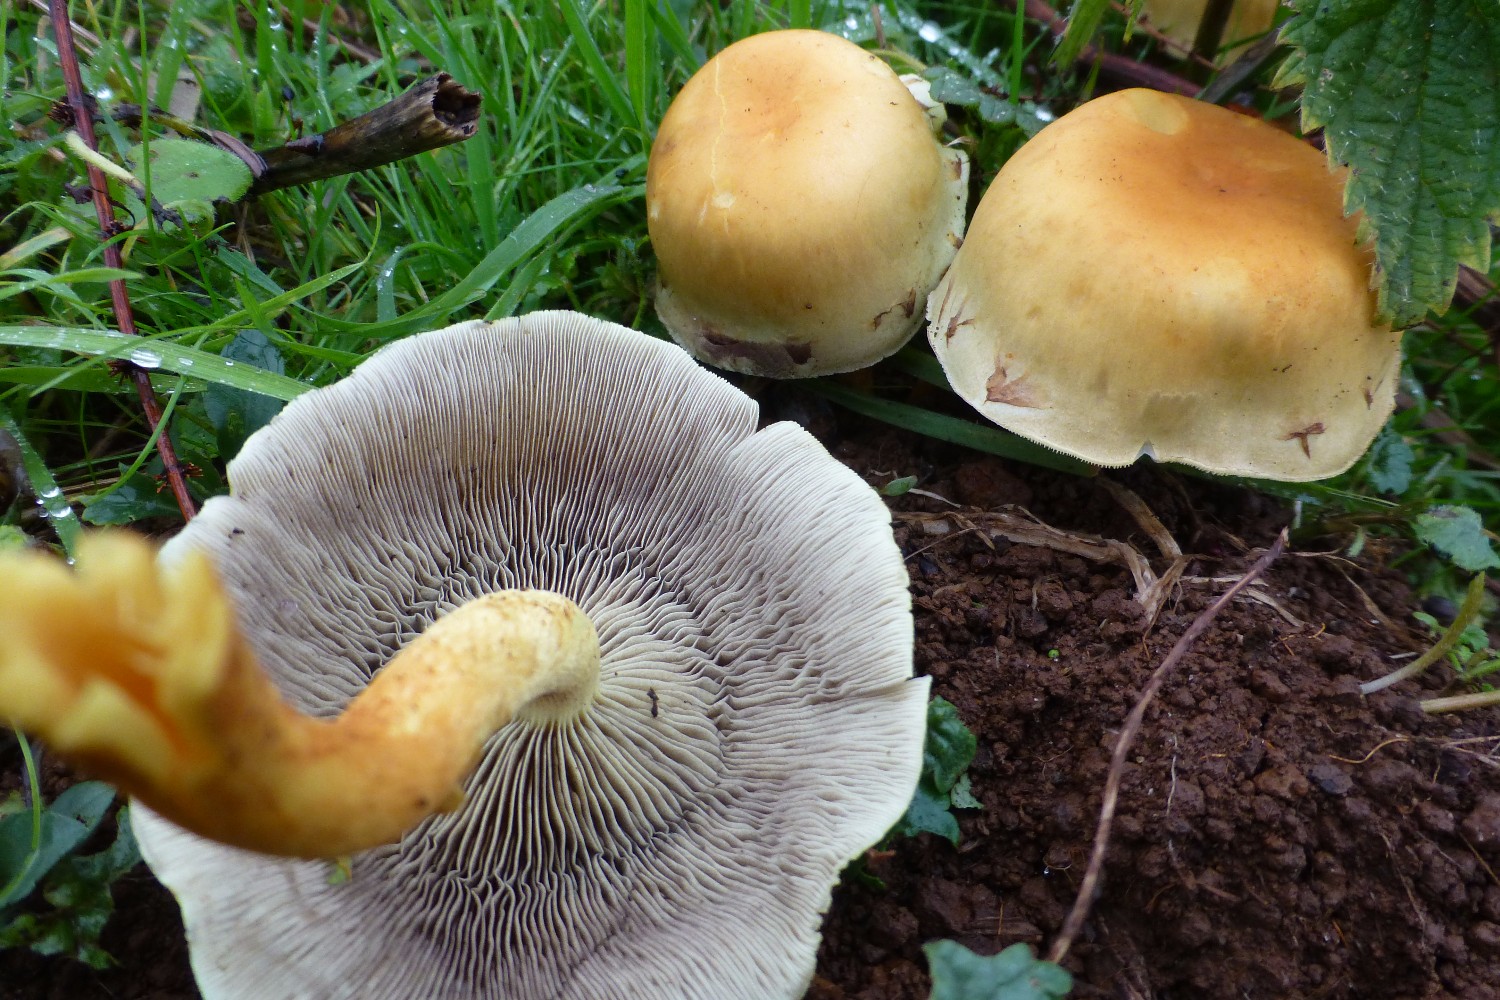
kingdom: Fungi
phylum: Basidiomycota
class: Agaricomycetes
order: Agaricales
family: Strophariaceae
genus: Hypholoma
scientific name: Hypholoma capnoides
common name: gran-svovlhat
